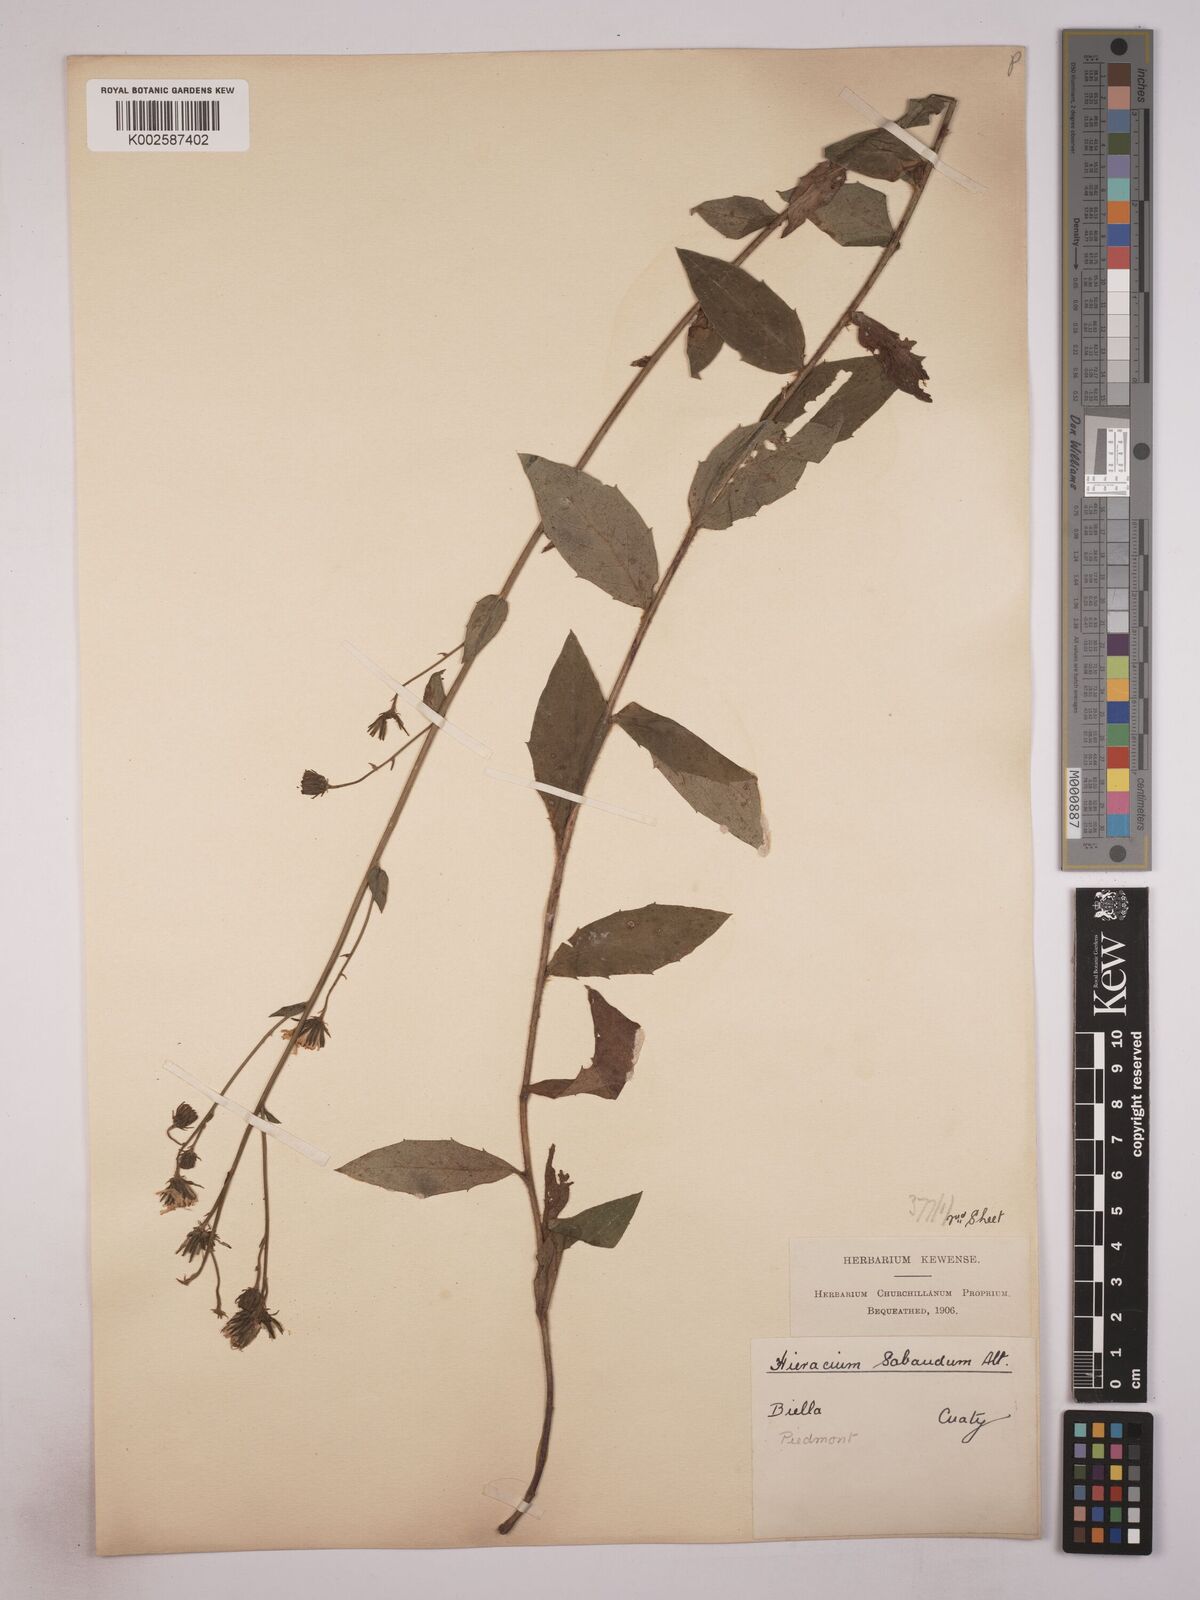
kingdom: Plantae
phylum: Tracheophyta
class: Magnoliopsida
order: Asterales
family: Asteraceae
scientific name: Asteraceae
